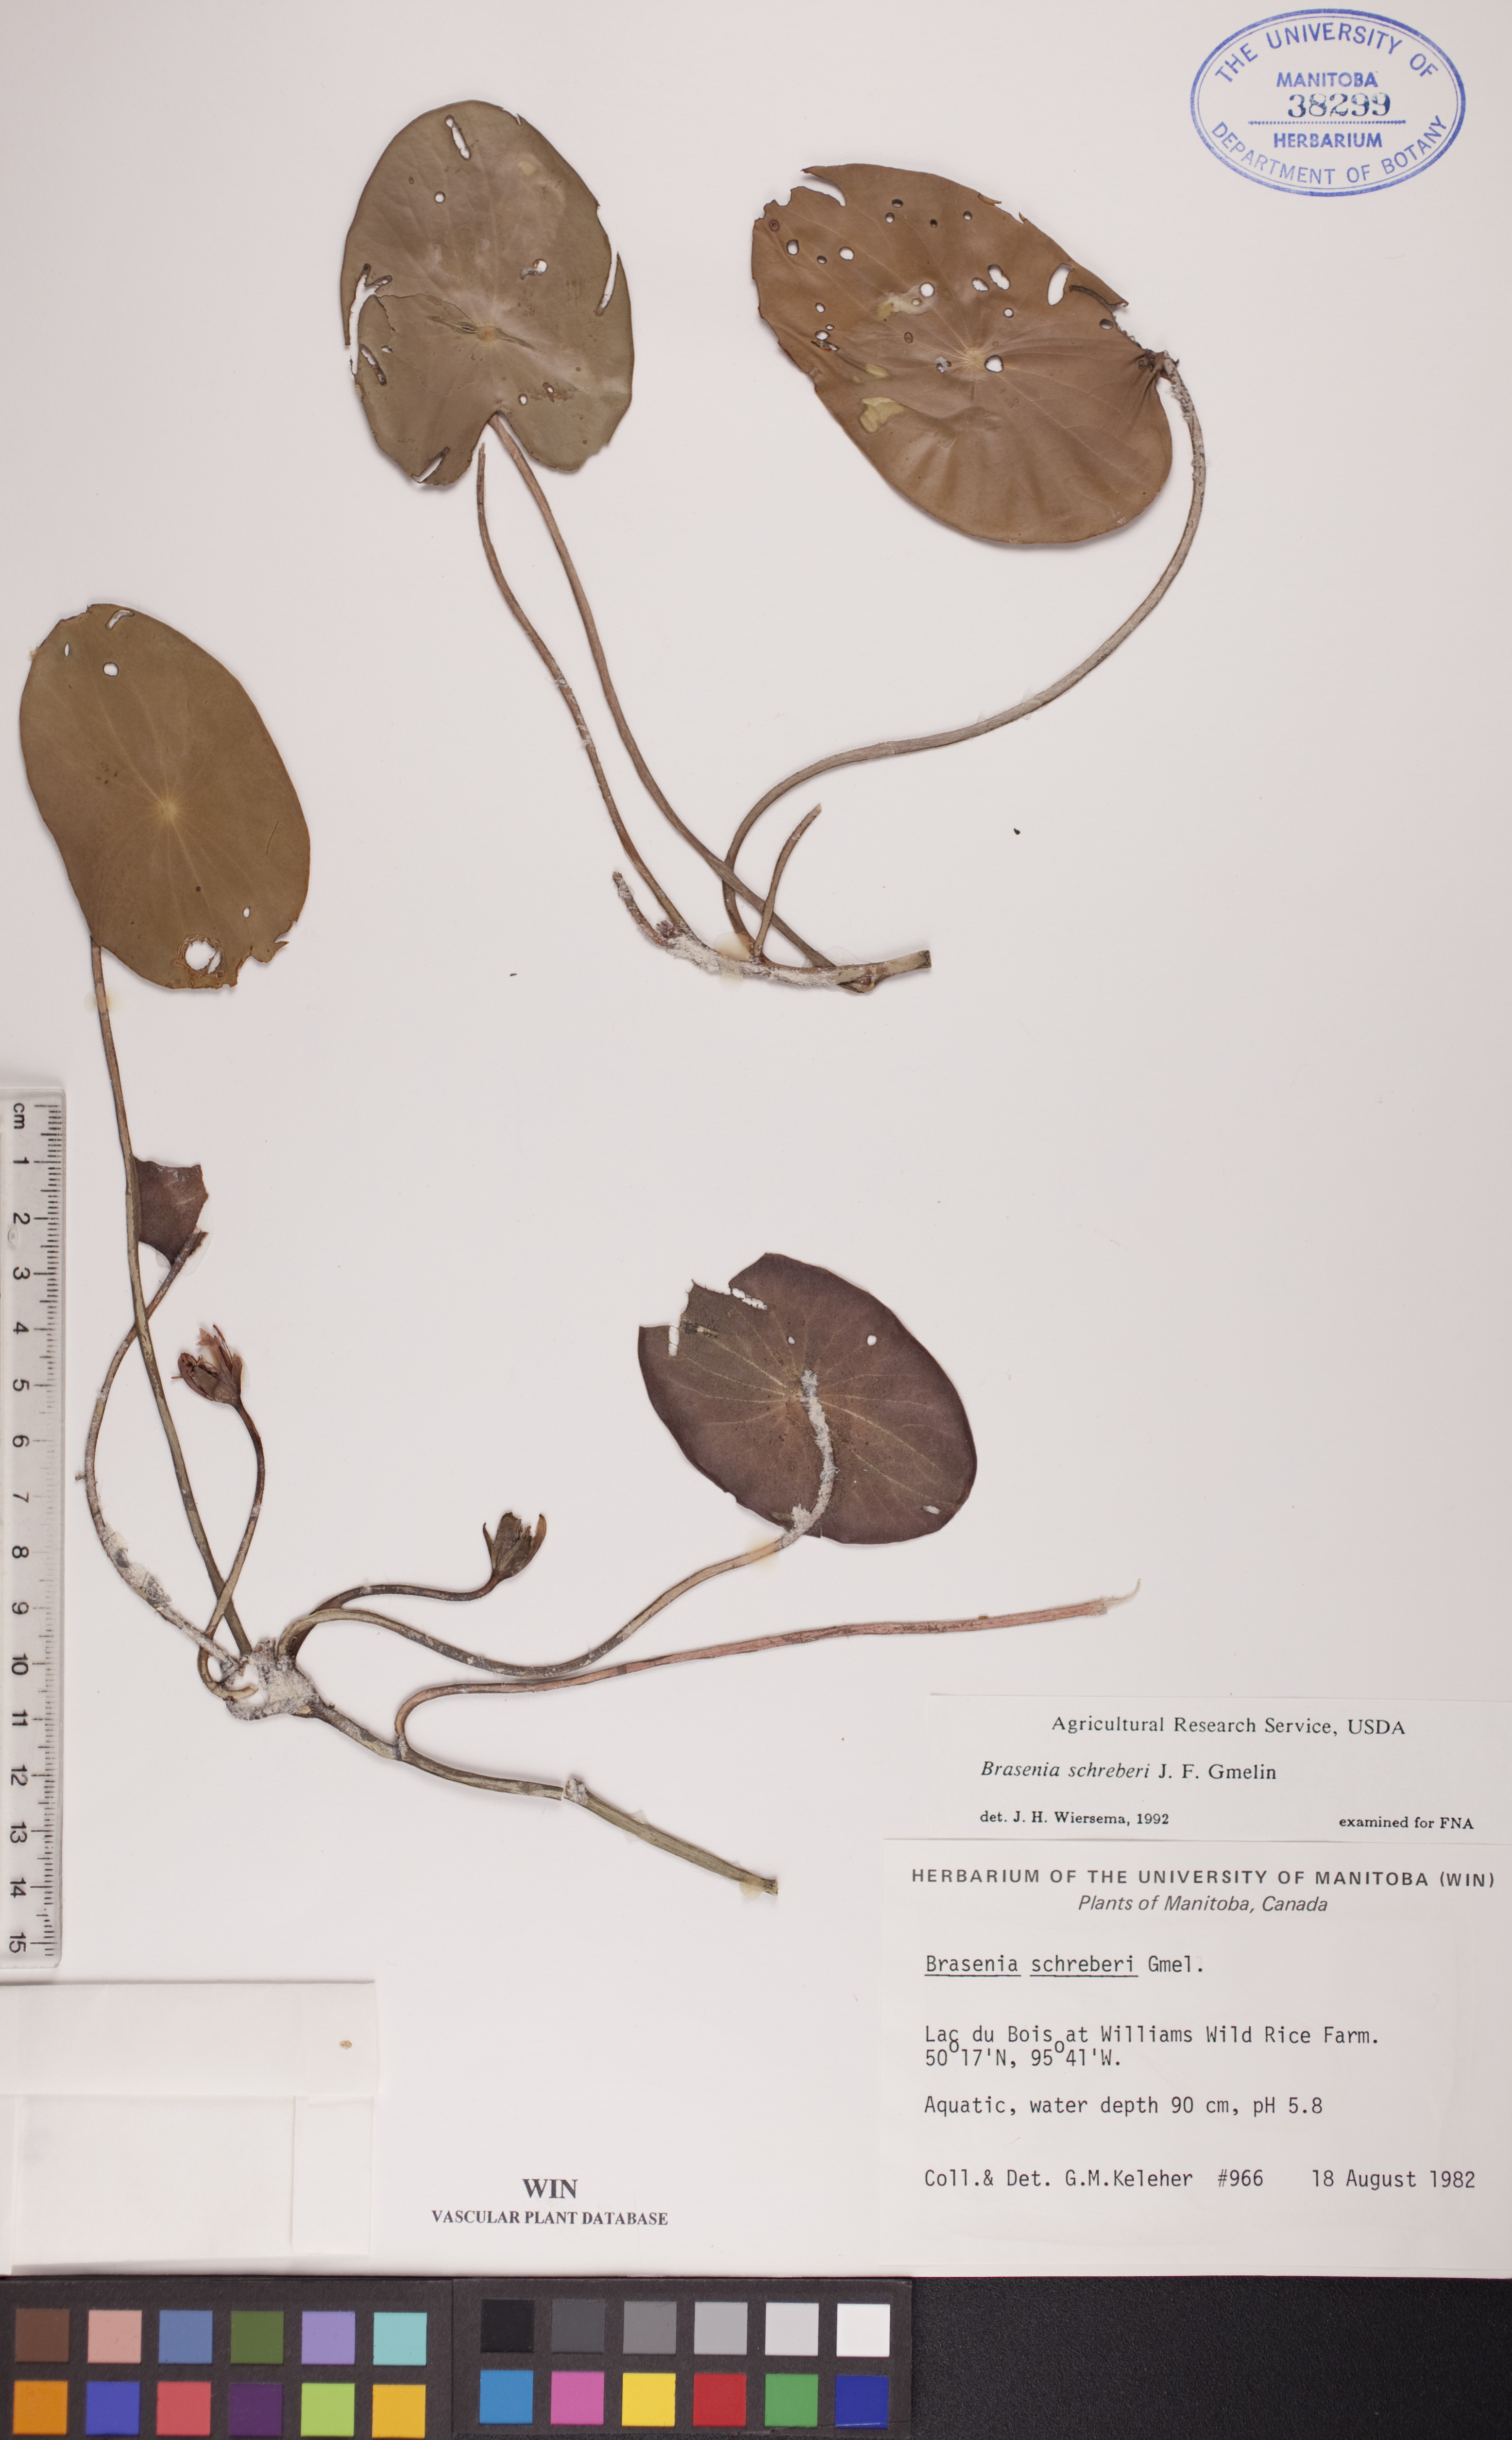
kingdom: Plantae
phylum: Tracheophyta
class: Magnoliopsida
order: Nymphaeales
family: Cabombaceae
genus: Brasenia
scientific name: Brasenia schreberi
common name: Water-shield
